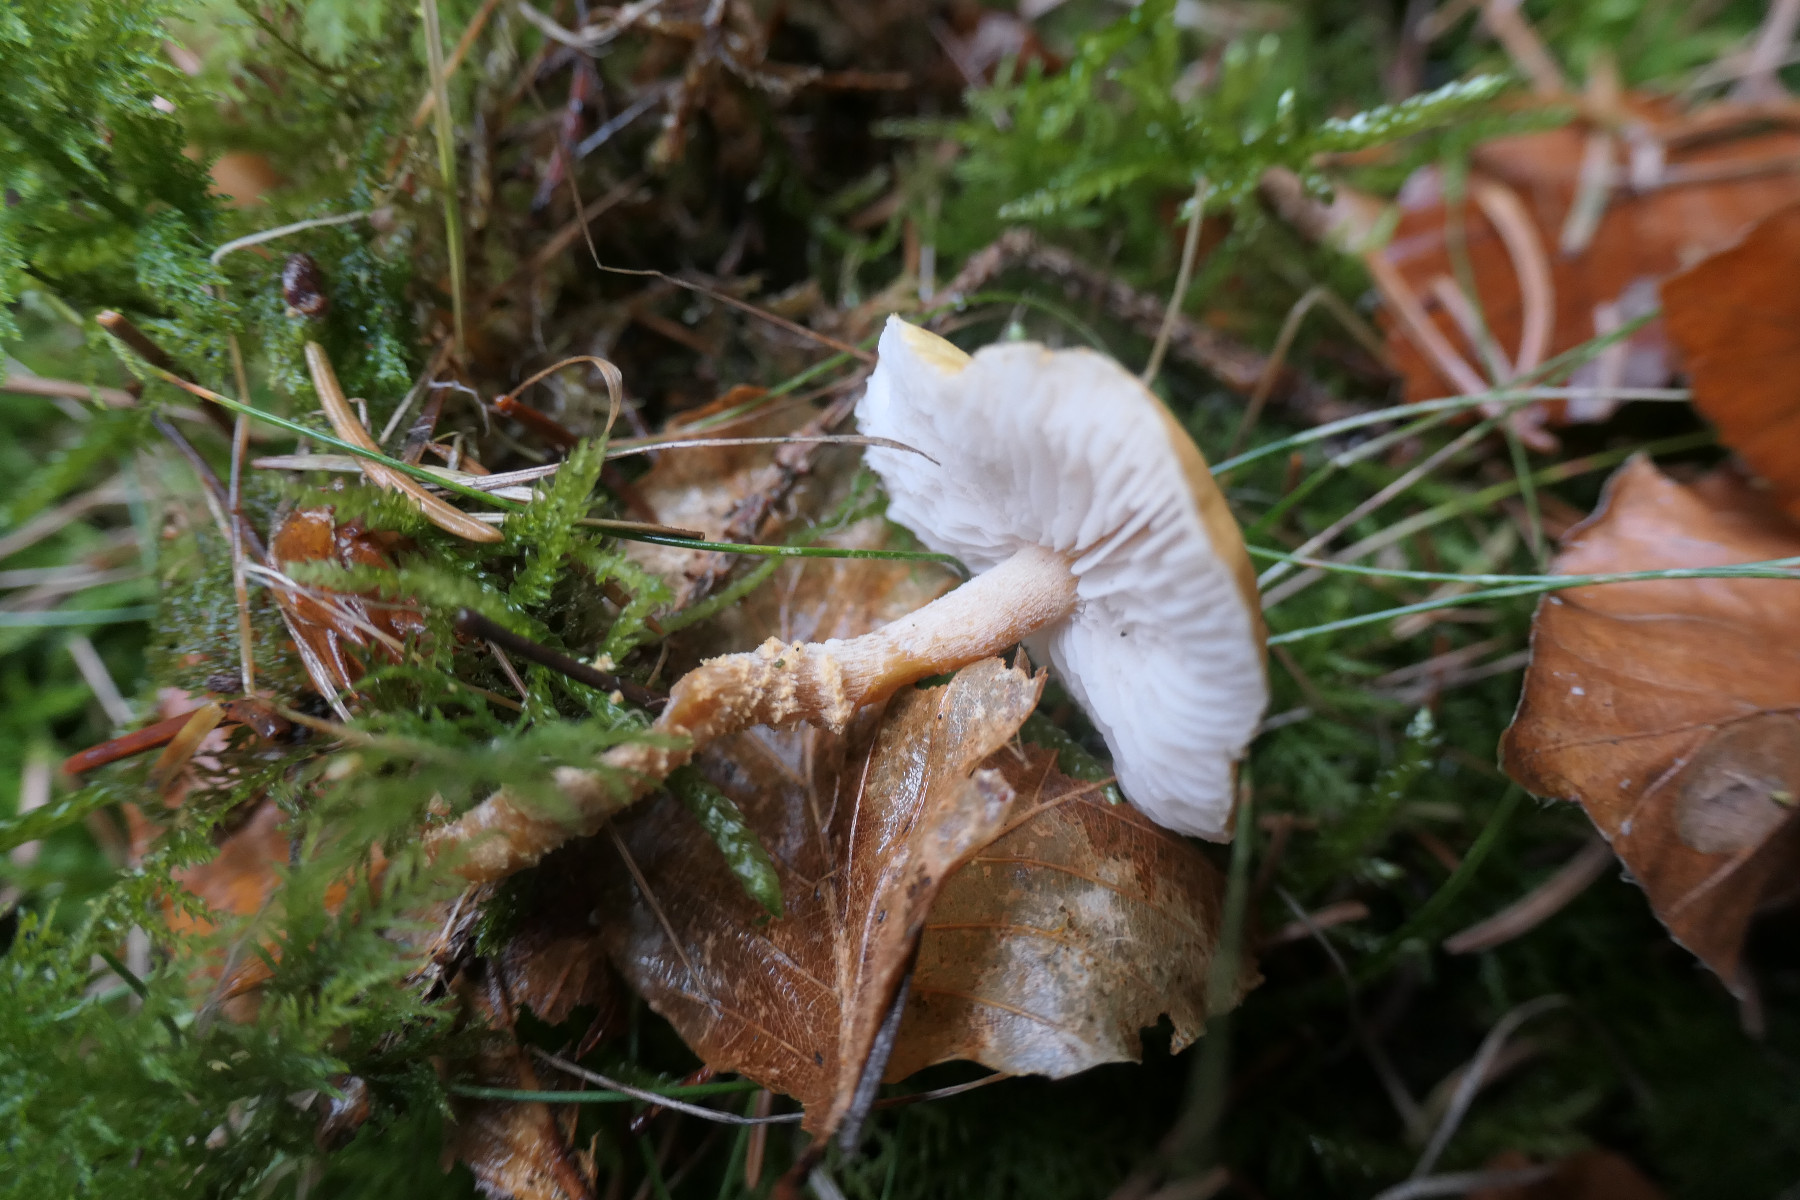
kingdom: Fungi
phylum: Basidiomycota
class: Agaricomycetes
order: Agaricales
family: Tricholomataceae
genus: Cystoderma
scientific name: Cystoderma amianthinum
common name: okkergul grynhat
